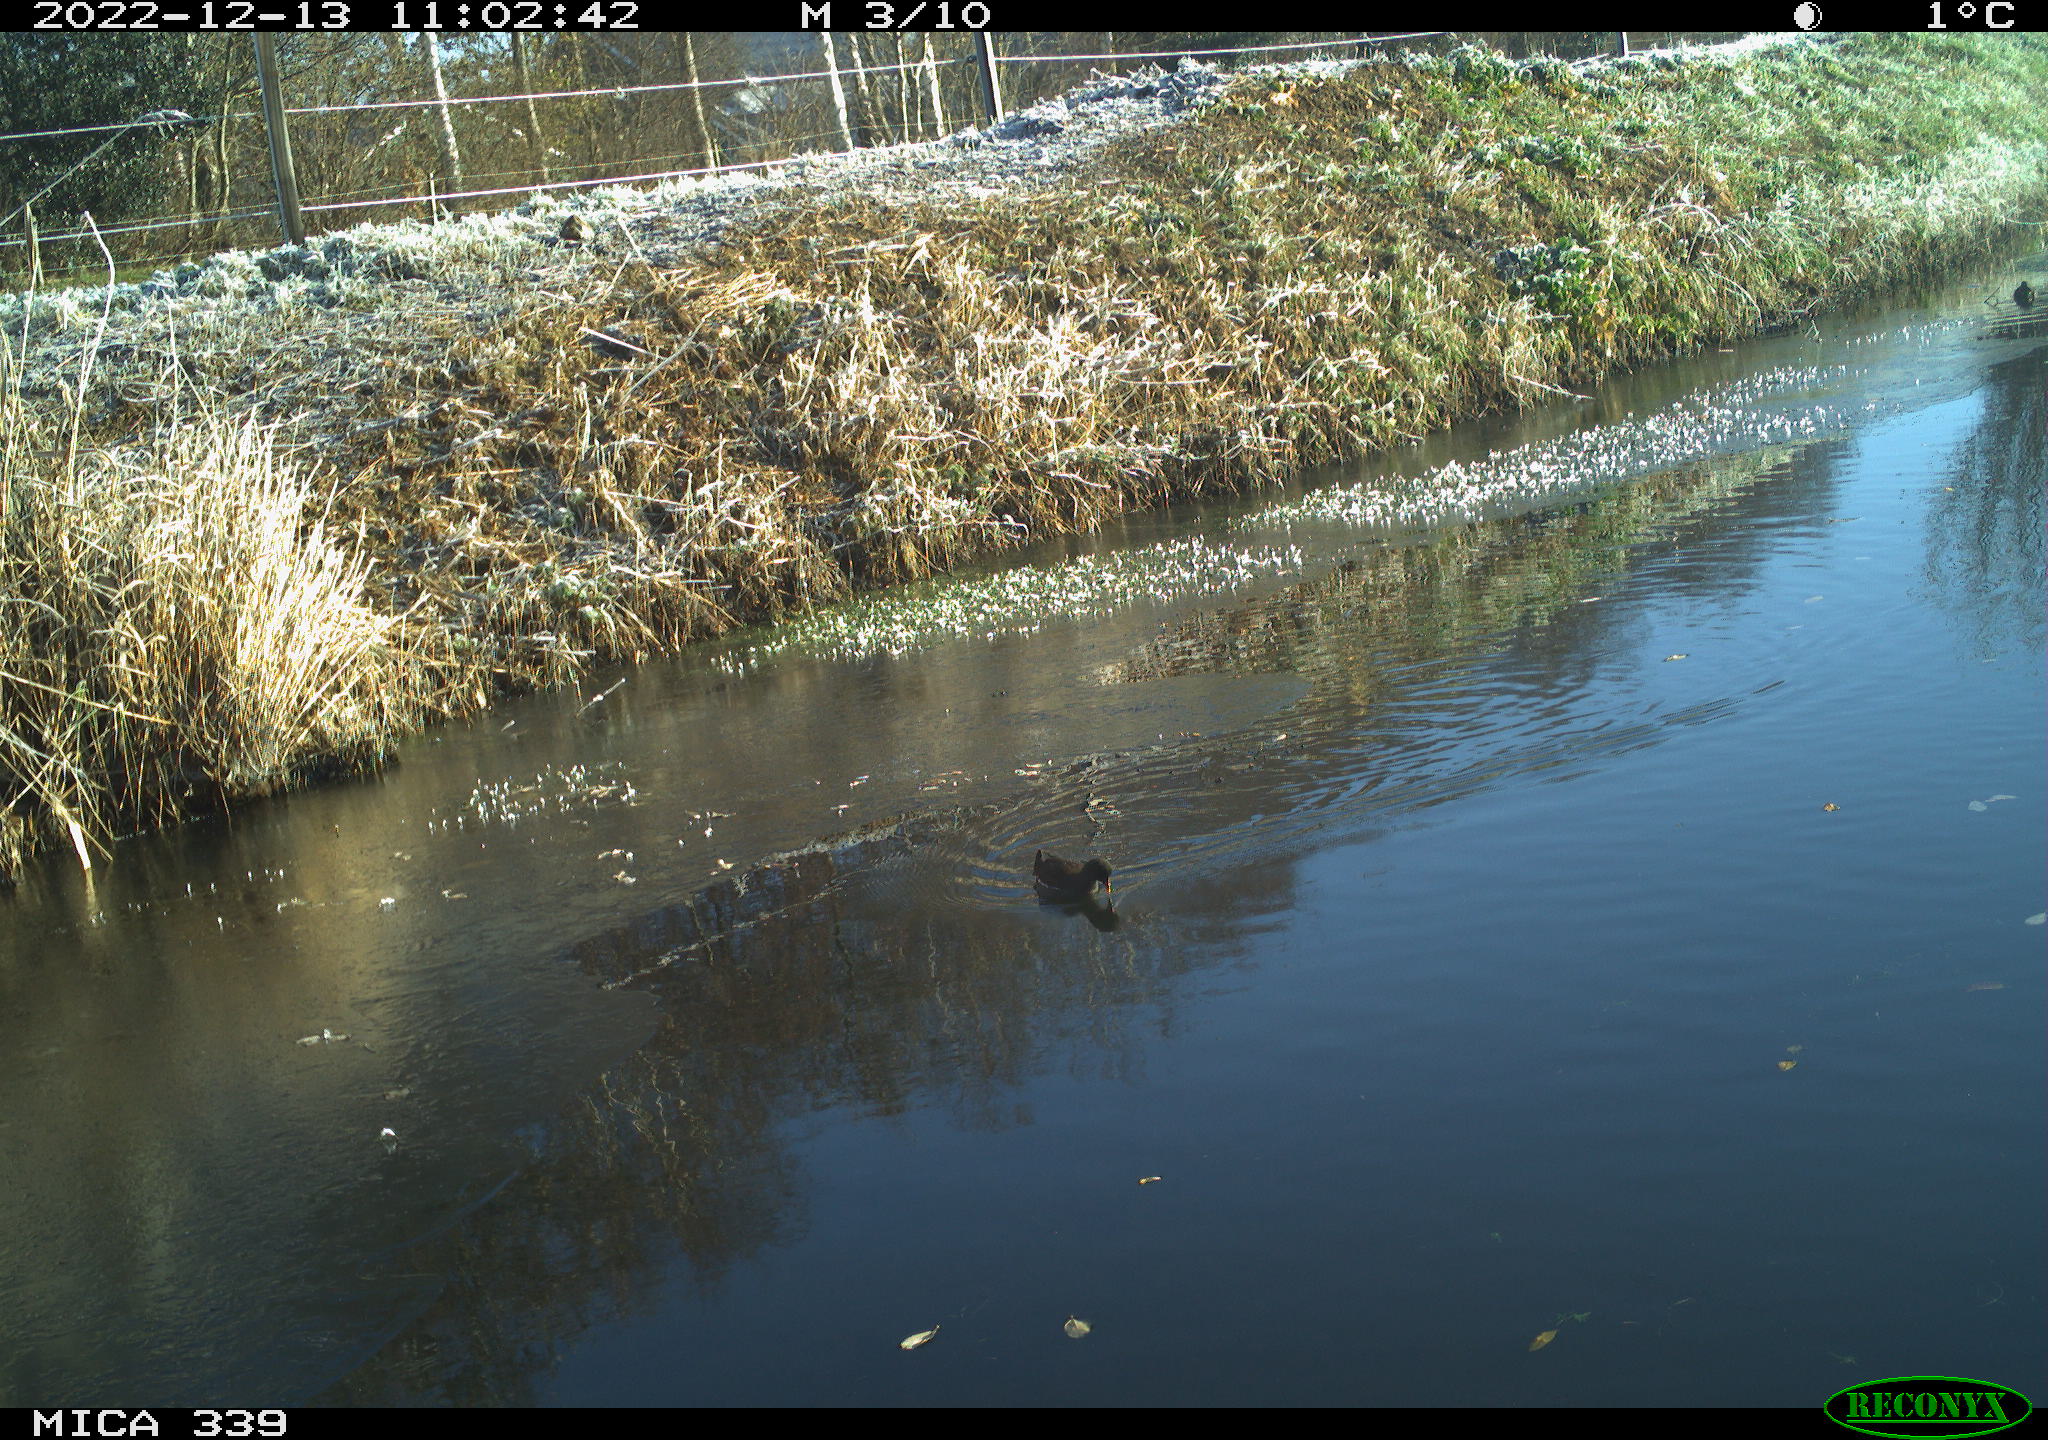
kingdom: Animalia
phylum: Chordata
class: Aves
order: Anseriformes
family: Anatidae
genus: Anas
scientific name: Anas
